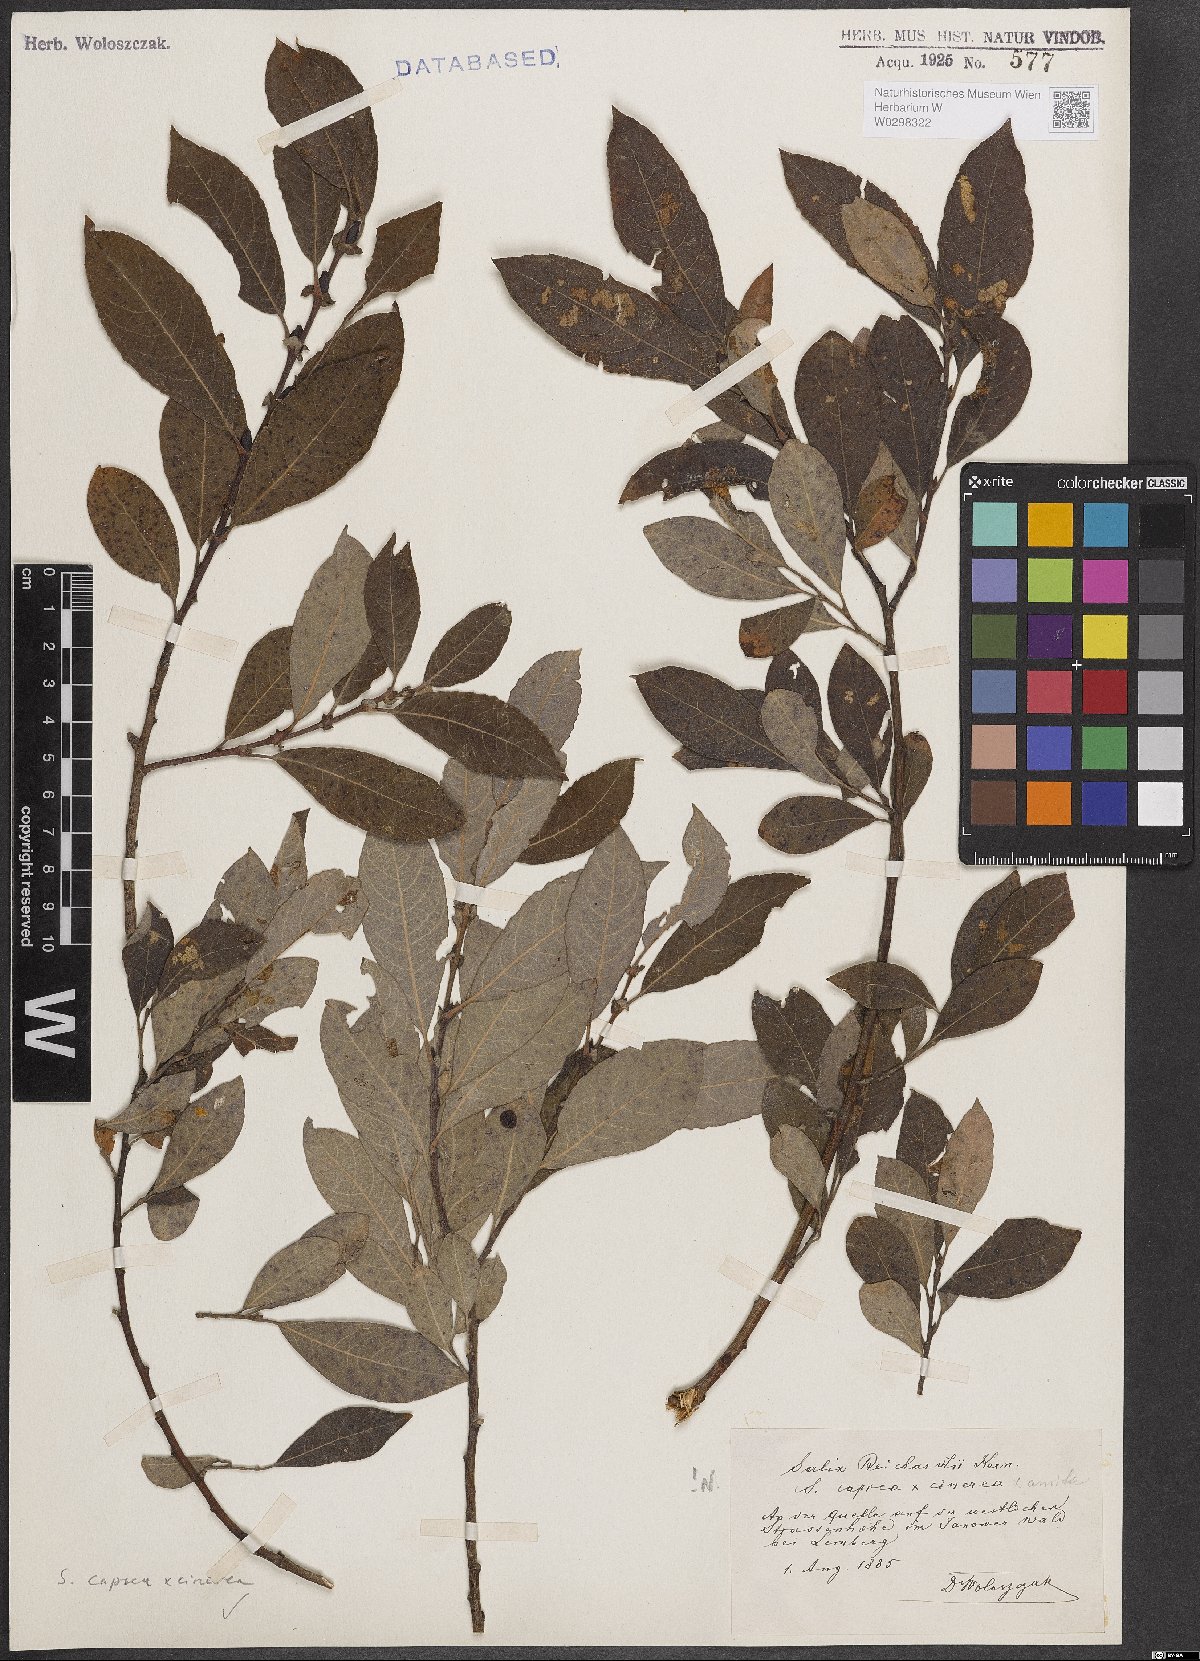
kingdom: Plantae
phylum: Tracheophyta
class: Magnoliopsida
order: Malpighiales
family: Salicaceae
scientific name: Salicaceae
